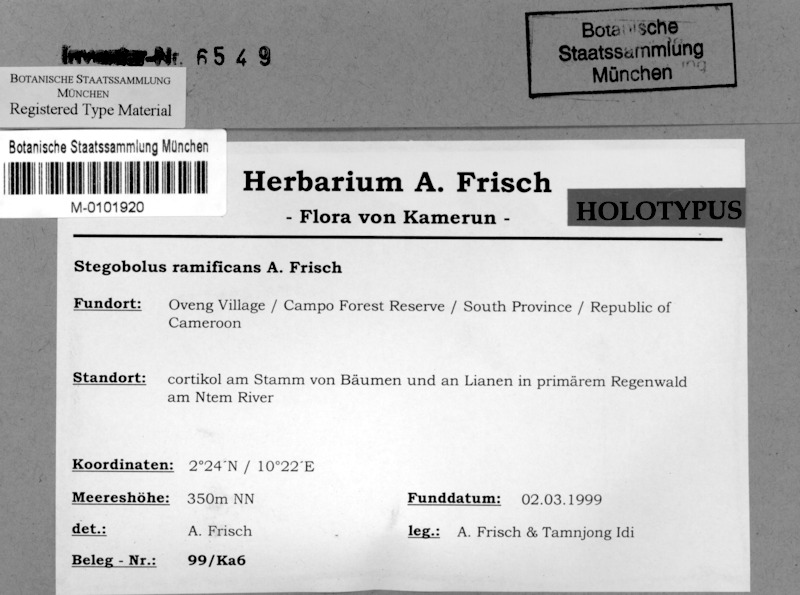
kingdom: Fungi
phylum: Ascomycota
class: Lecanoromycetes
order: Ostropales
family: Graphidaceae
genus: Rhabdodiscus
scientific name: Rhabdodiscus ramificans
